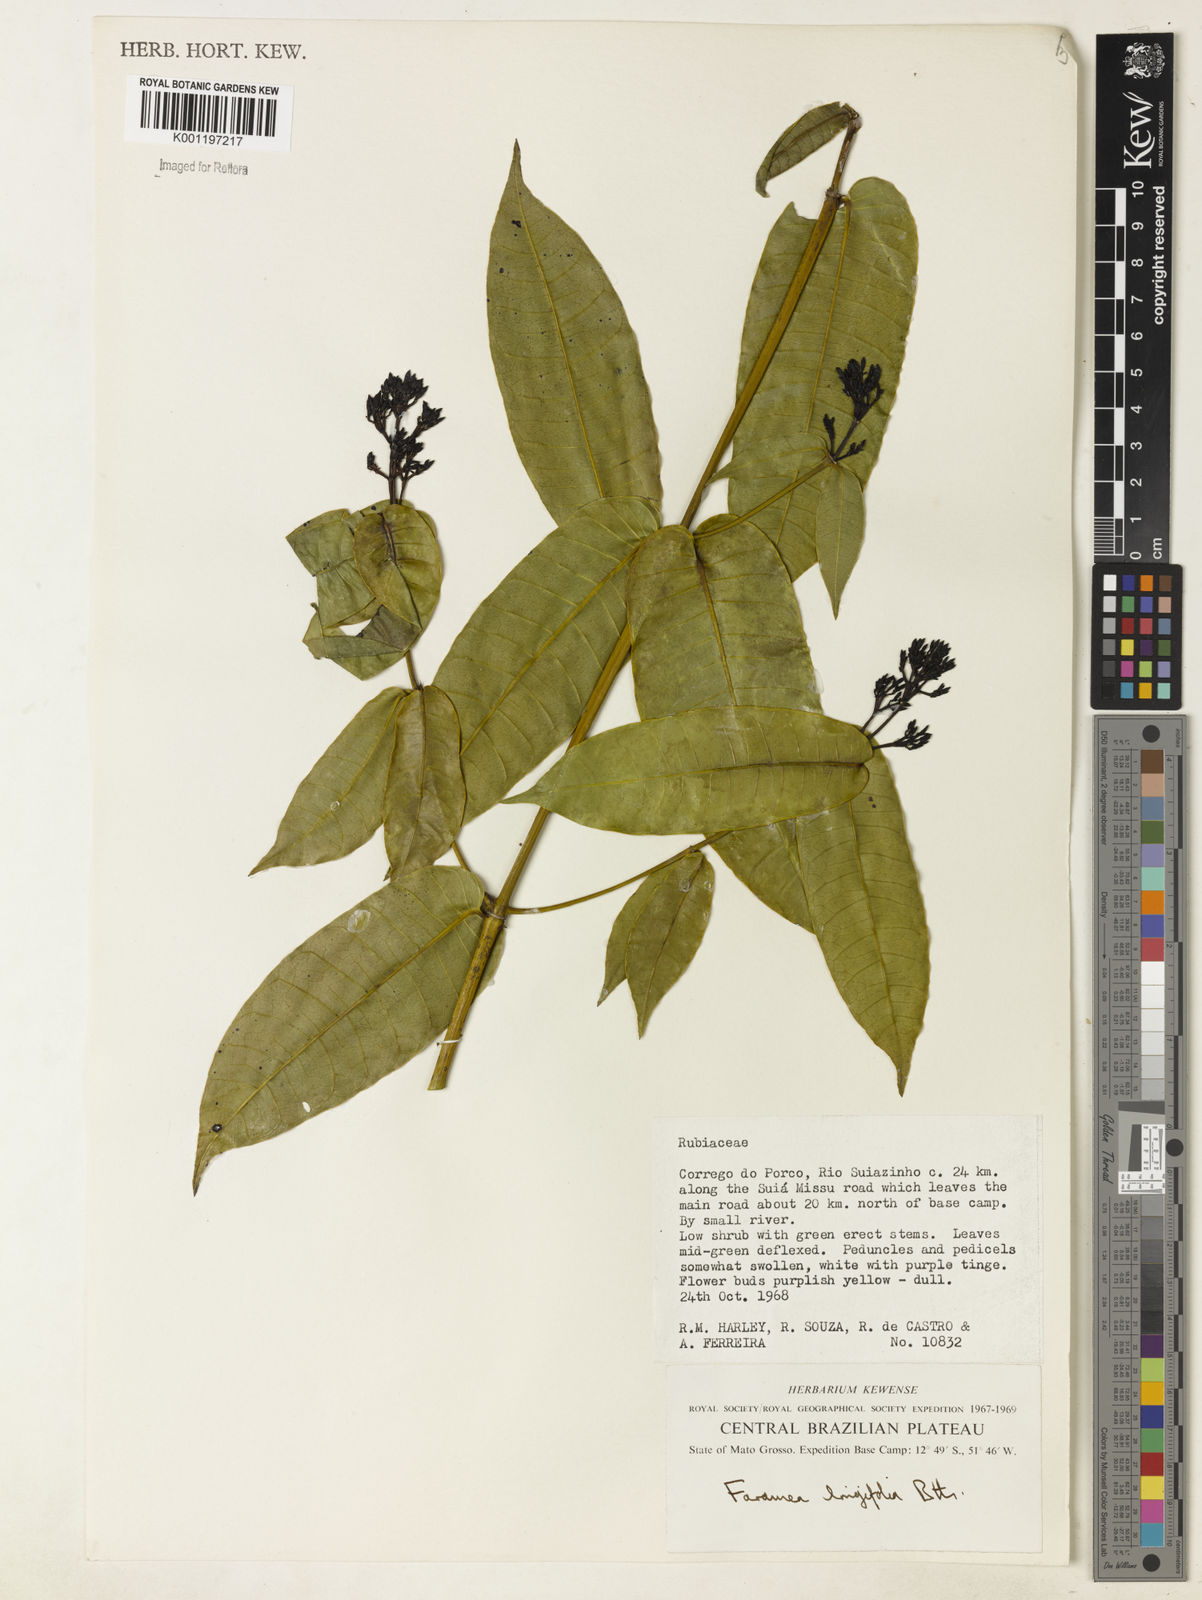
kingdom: Plantae
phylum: Tracheophyta
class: Magnoliopsida
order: Gentianales
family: Rubiaceae
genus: Faramea
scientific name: Faramea sessilifolia
